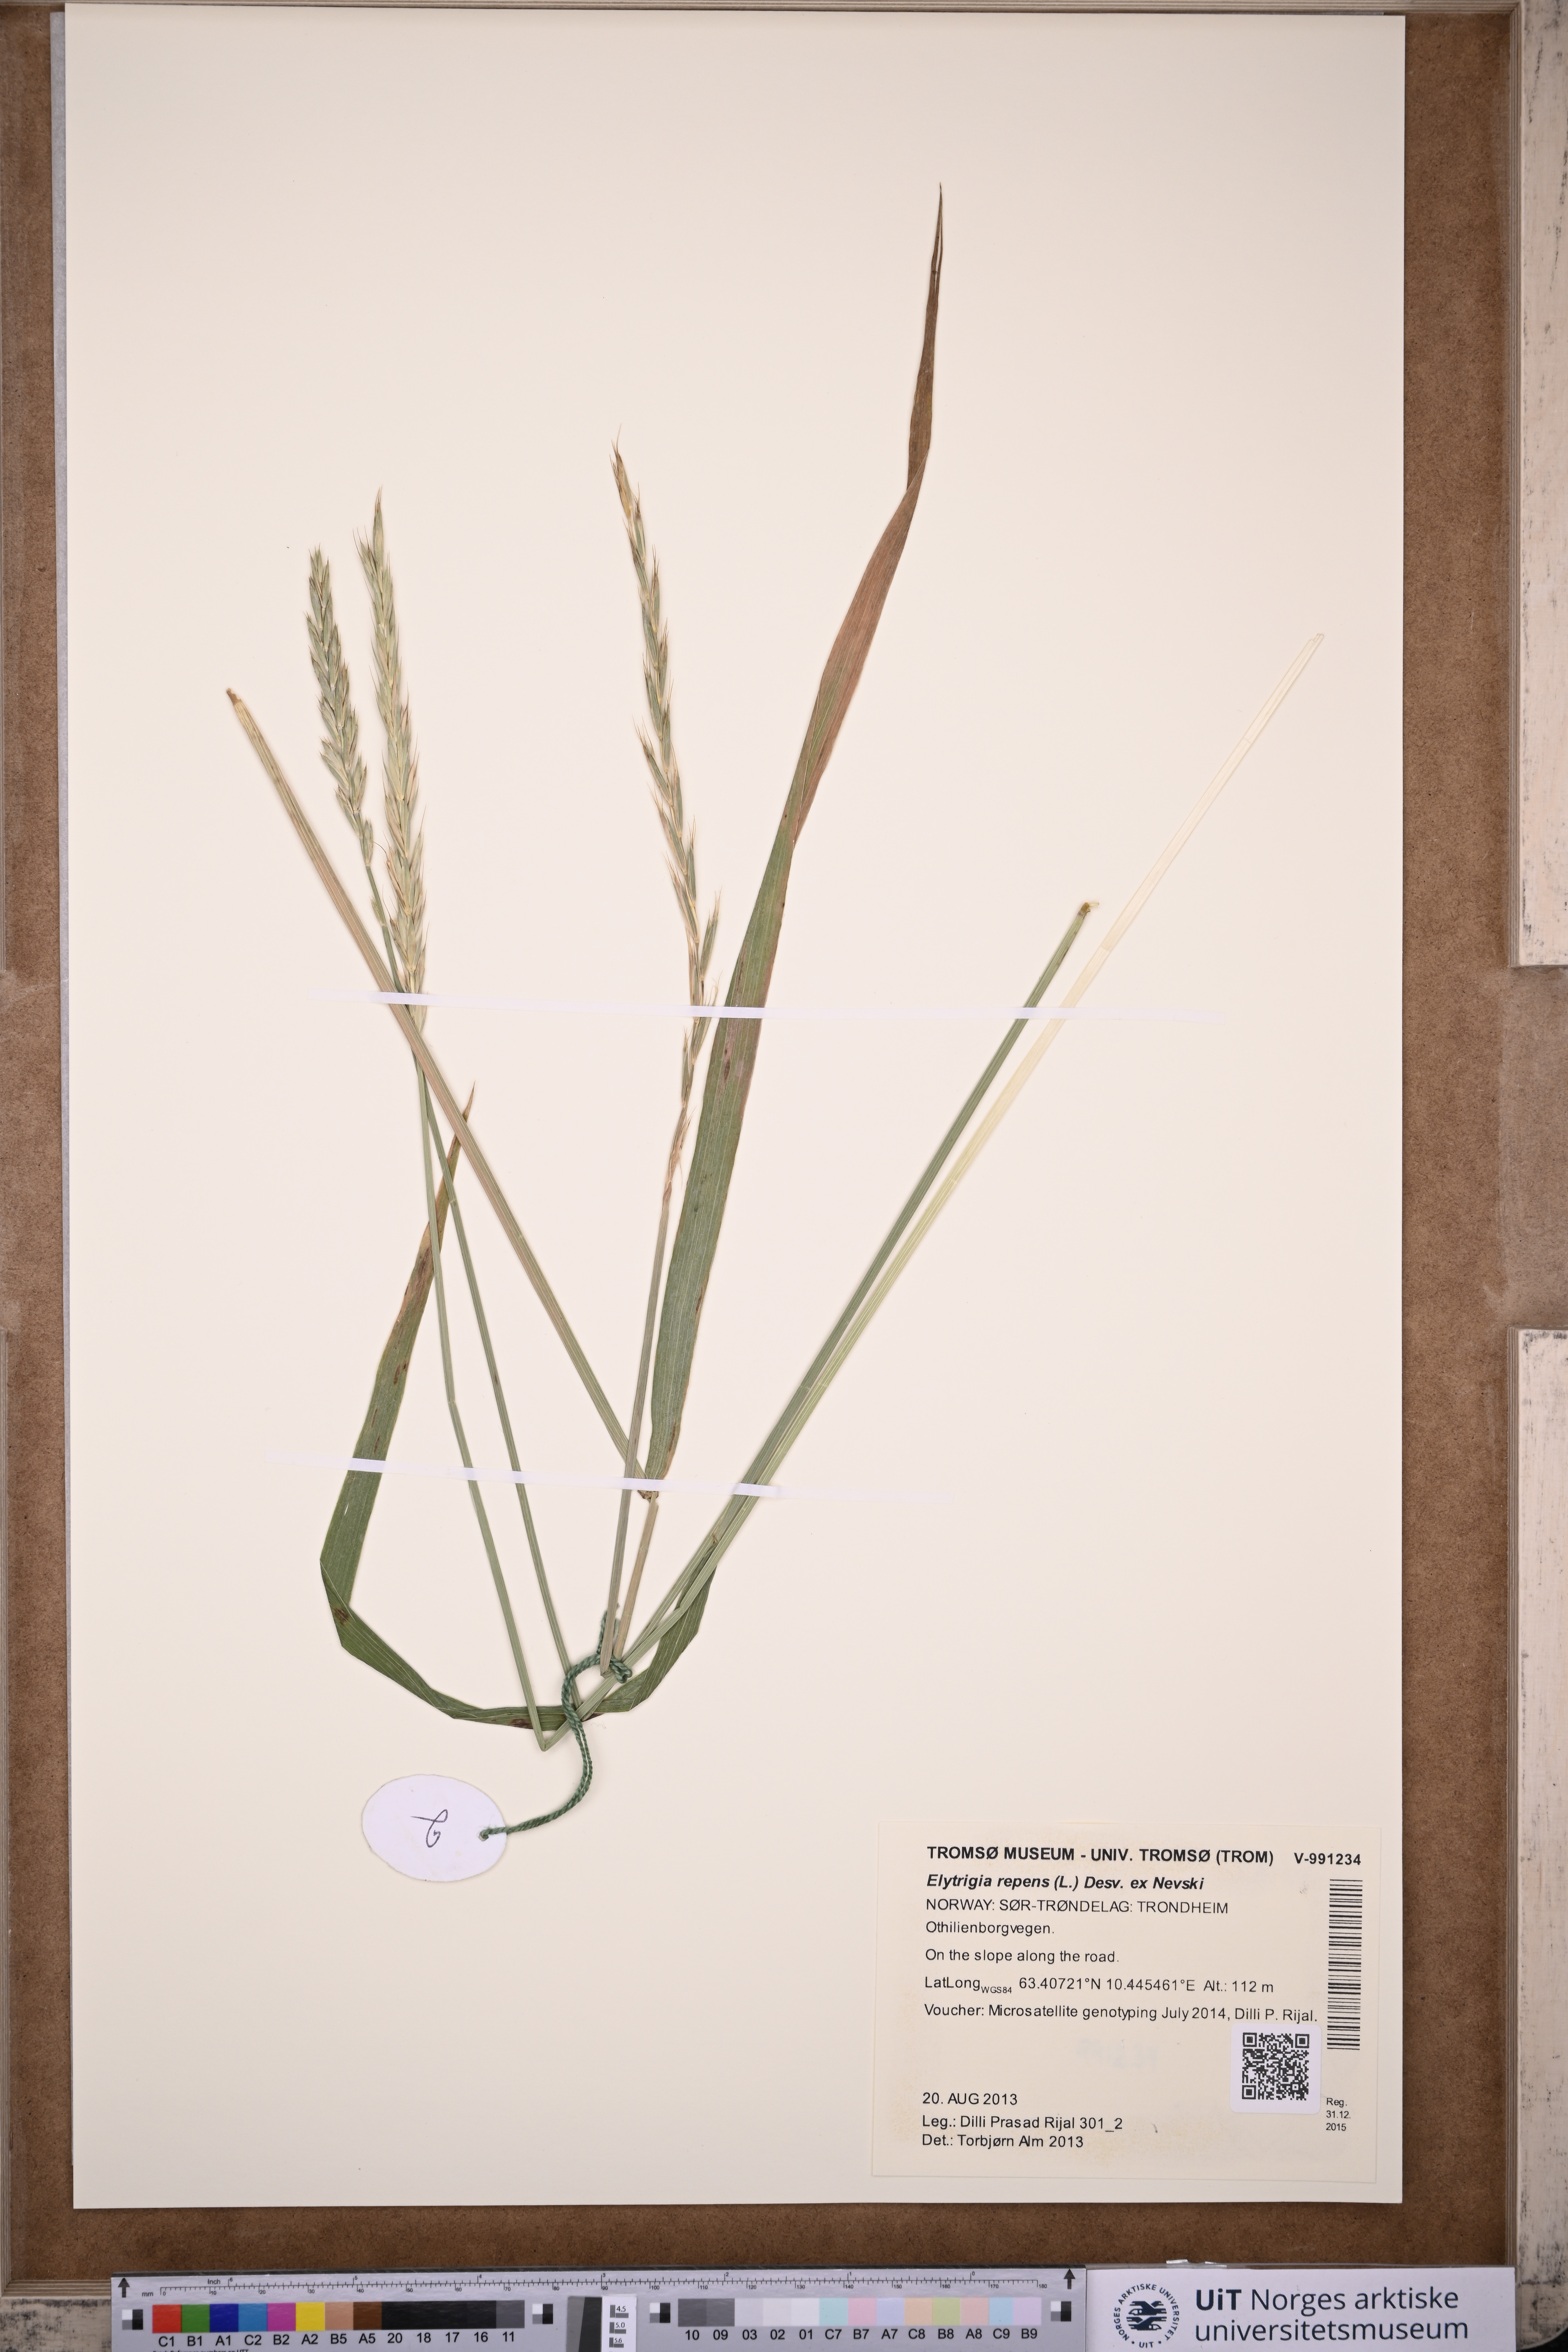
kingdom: Plantae
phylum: Tracheophyta
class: Liliopsida
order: Poales
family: Poaceae
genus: Elymus
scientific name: Elymus repens
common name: Quackgrass
